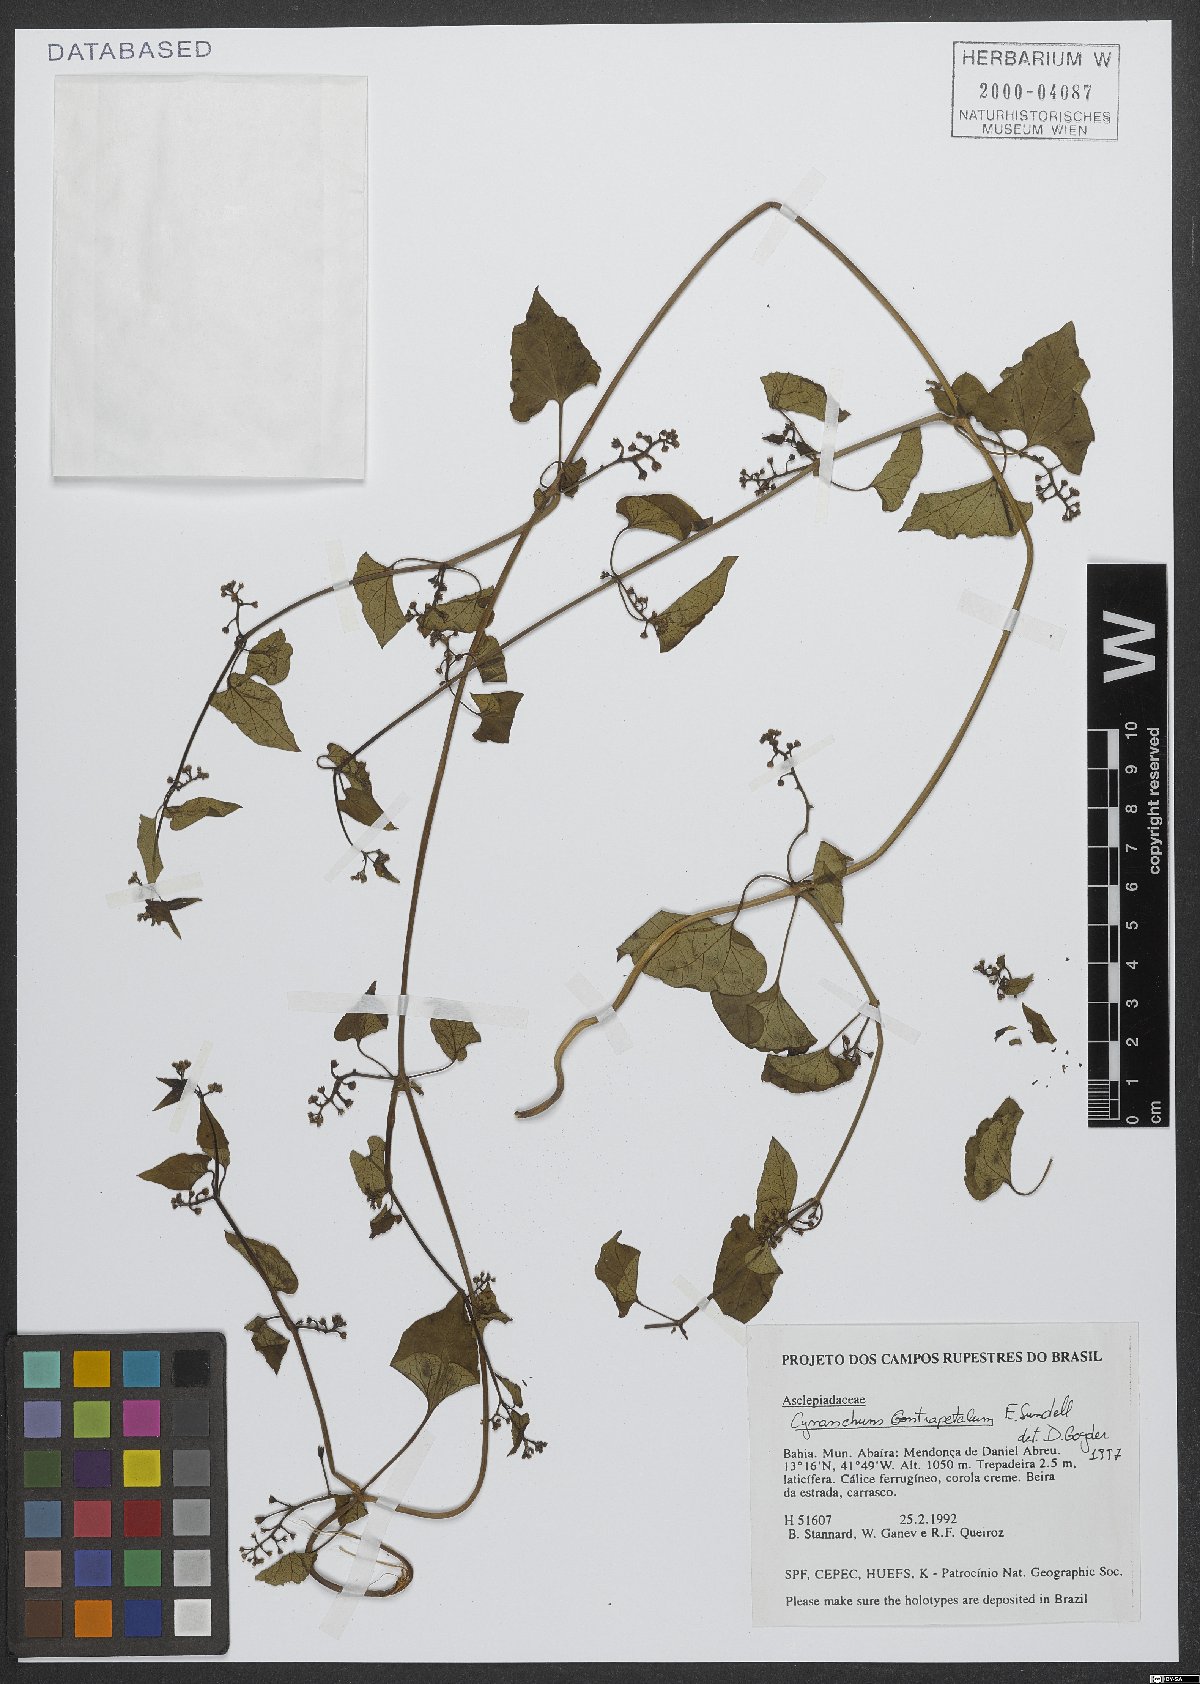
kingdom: Plantae
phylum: Tracheophyta
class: Magnoliopsida
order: Gentianales
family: Apocynaceae
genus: Cynanchum
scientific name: Cynanchum roulinioides
